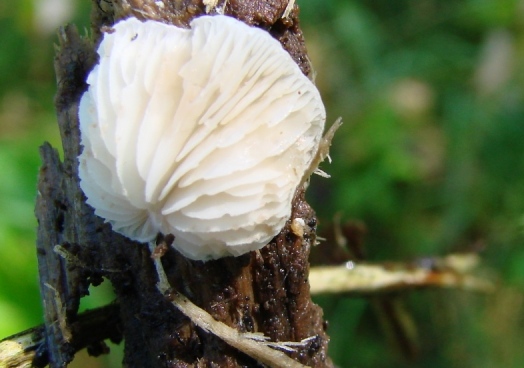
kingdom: Fungi
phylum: Basidiomycota
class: Agaricomycetes
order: Agaricales
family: Crepidotaceae
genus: Crepidotus
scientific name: Crepidotus variabilis
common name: forskelligformet muslingesvamp
